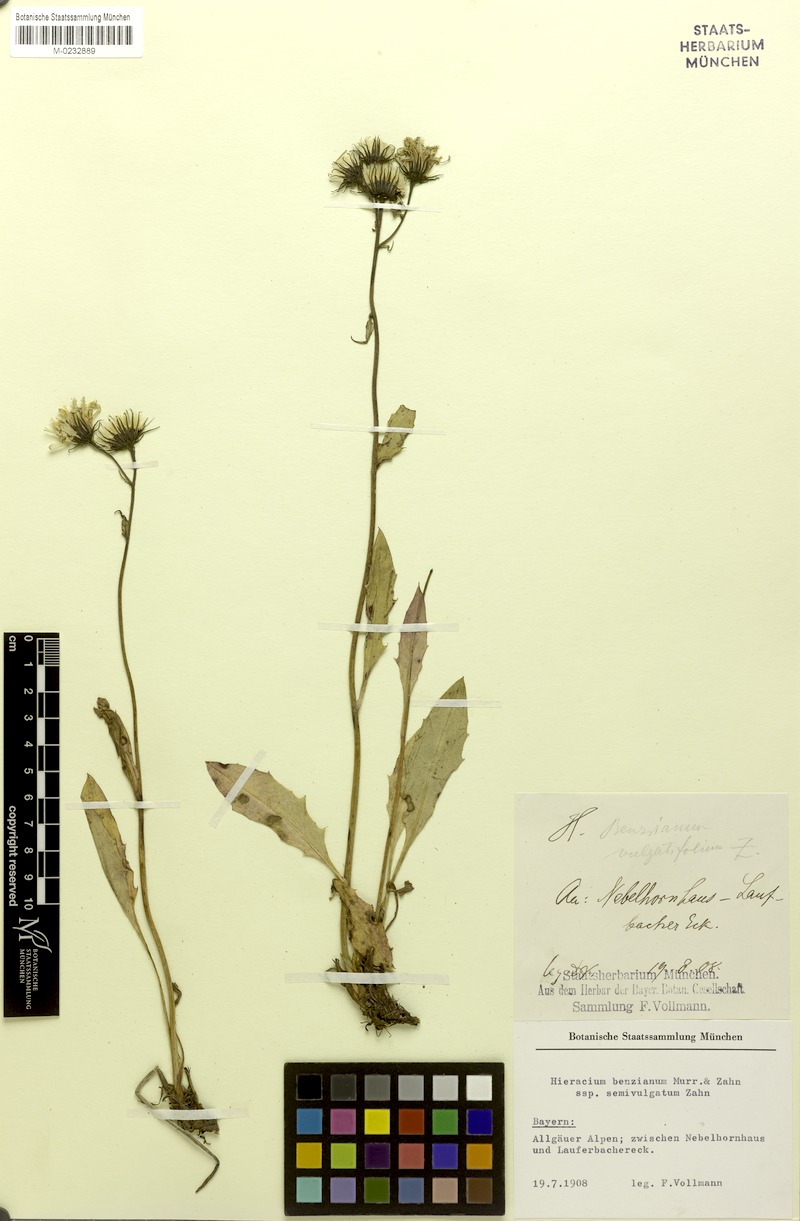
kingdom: Plantae
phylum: Tracheophyta
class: Magnoliopsida
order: Asterales
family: Asteraceae
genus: Hieracium
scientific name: Hieracium benzianum
